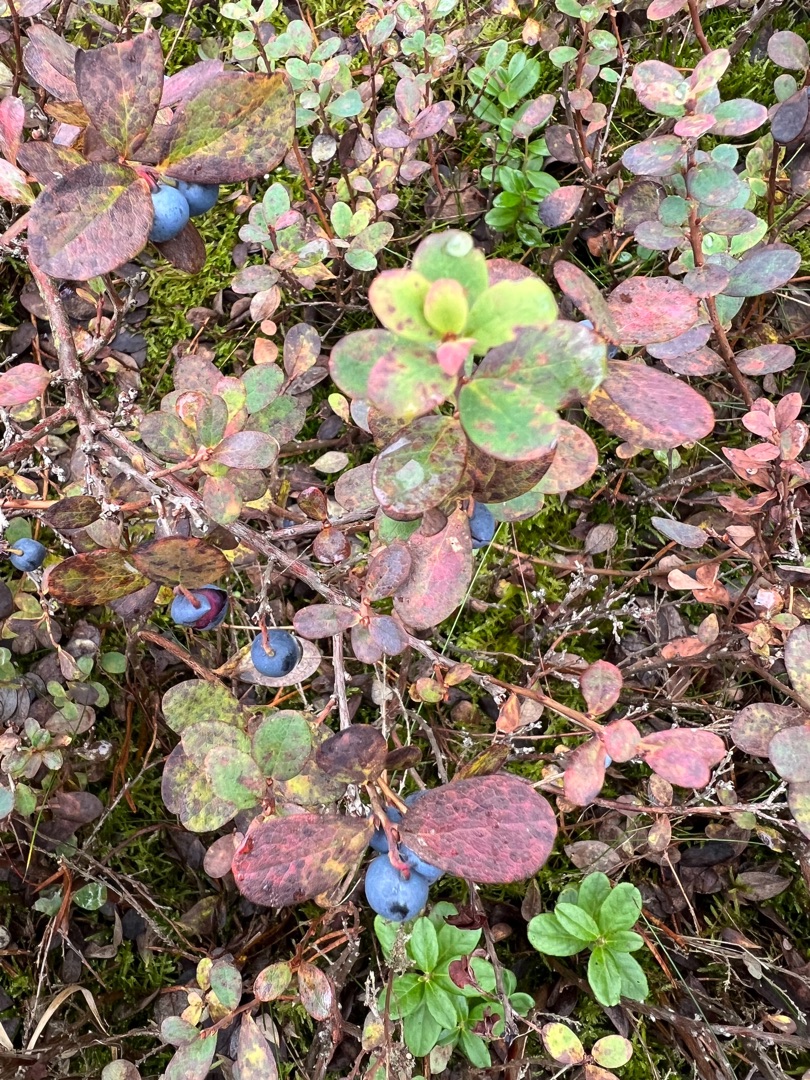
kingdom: Plantae
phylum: Tracheophyta
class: Magnoliopsida
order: Ericales
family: Ericaceae
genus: Vaccinium
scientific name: Vaccinium uliginosum
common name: Mose-bølle
